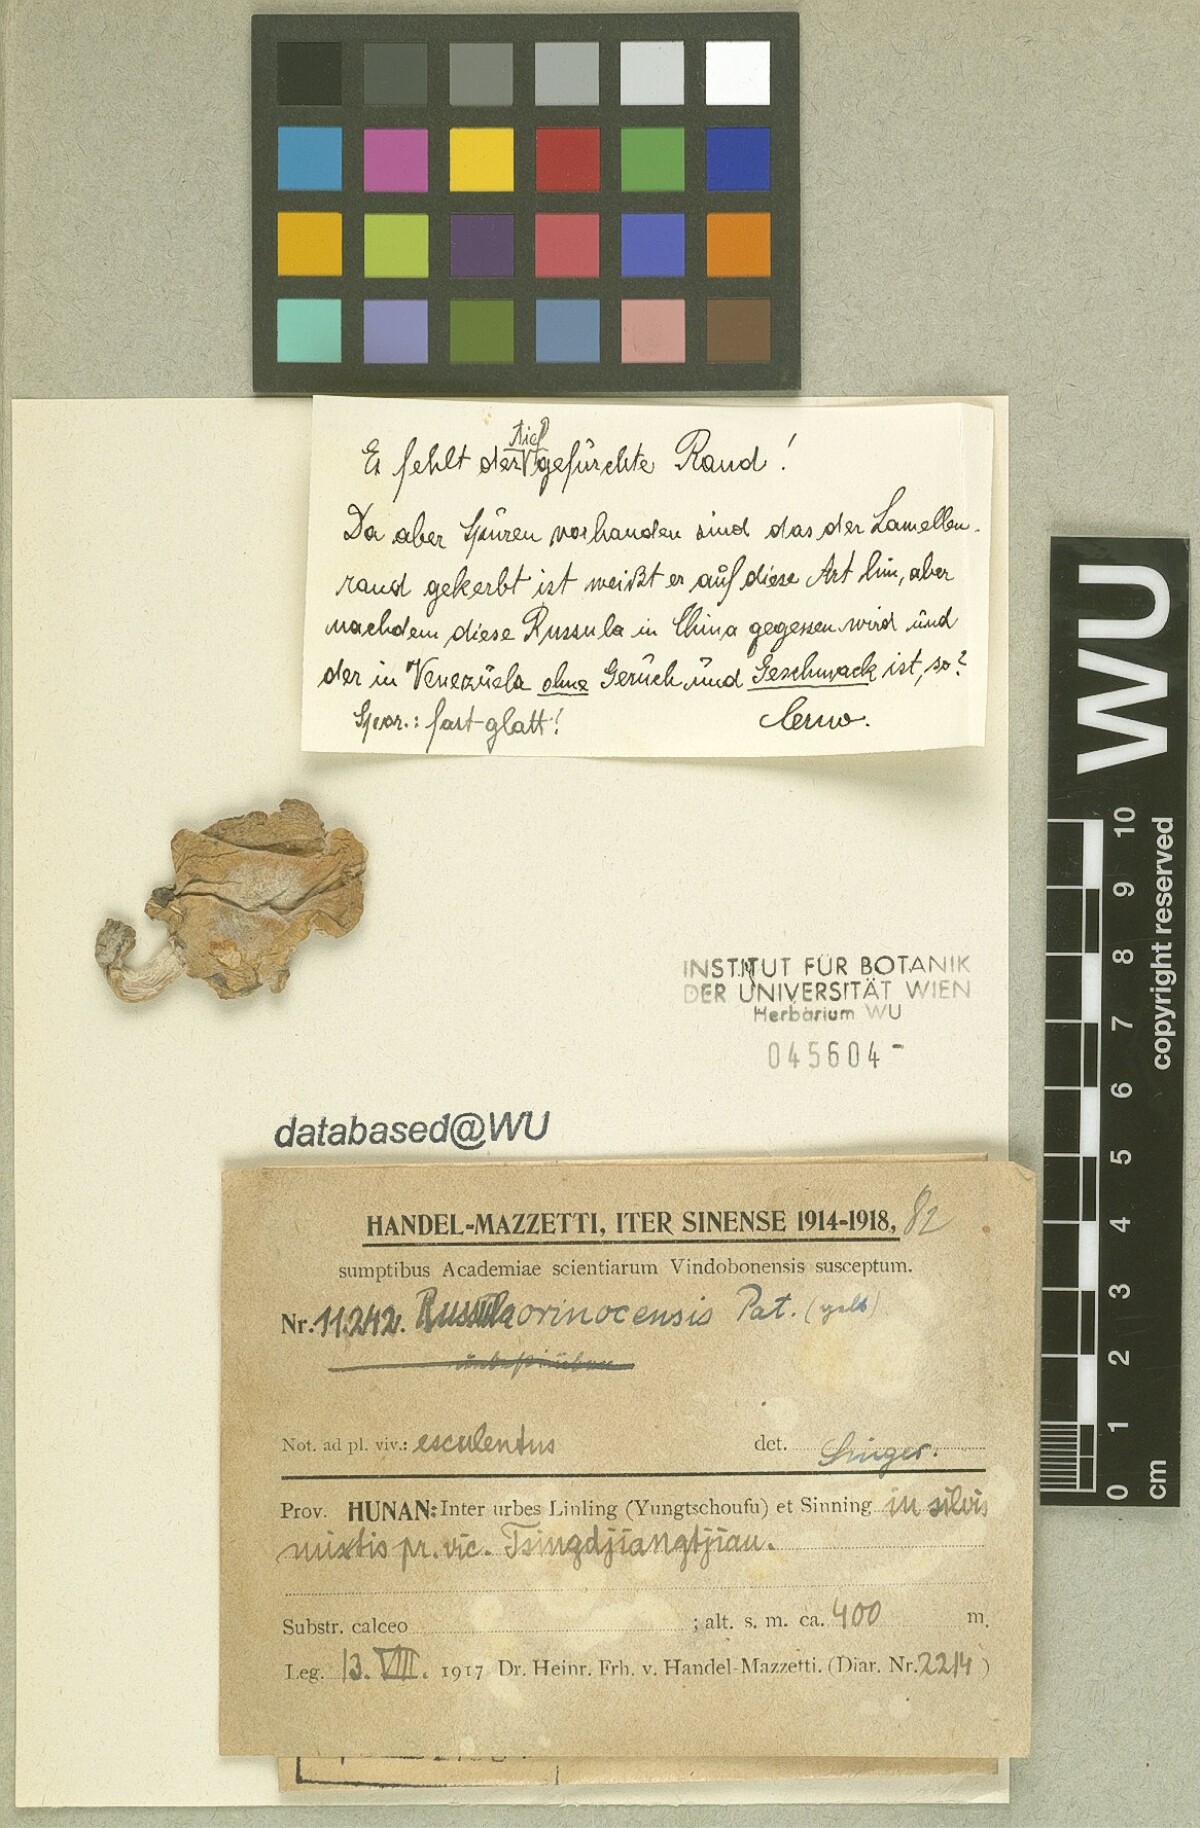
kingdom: Fungi
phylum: Basidiomycota
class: Agaricomycetes
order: Russulales
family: Russulaceae
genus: Russula
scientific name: Russula
